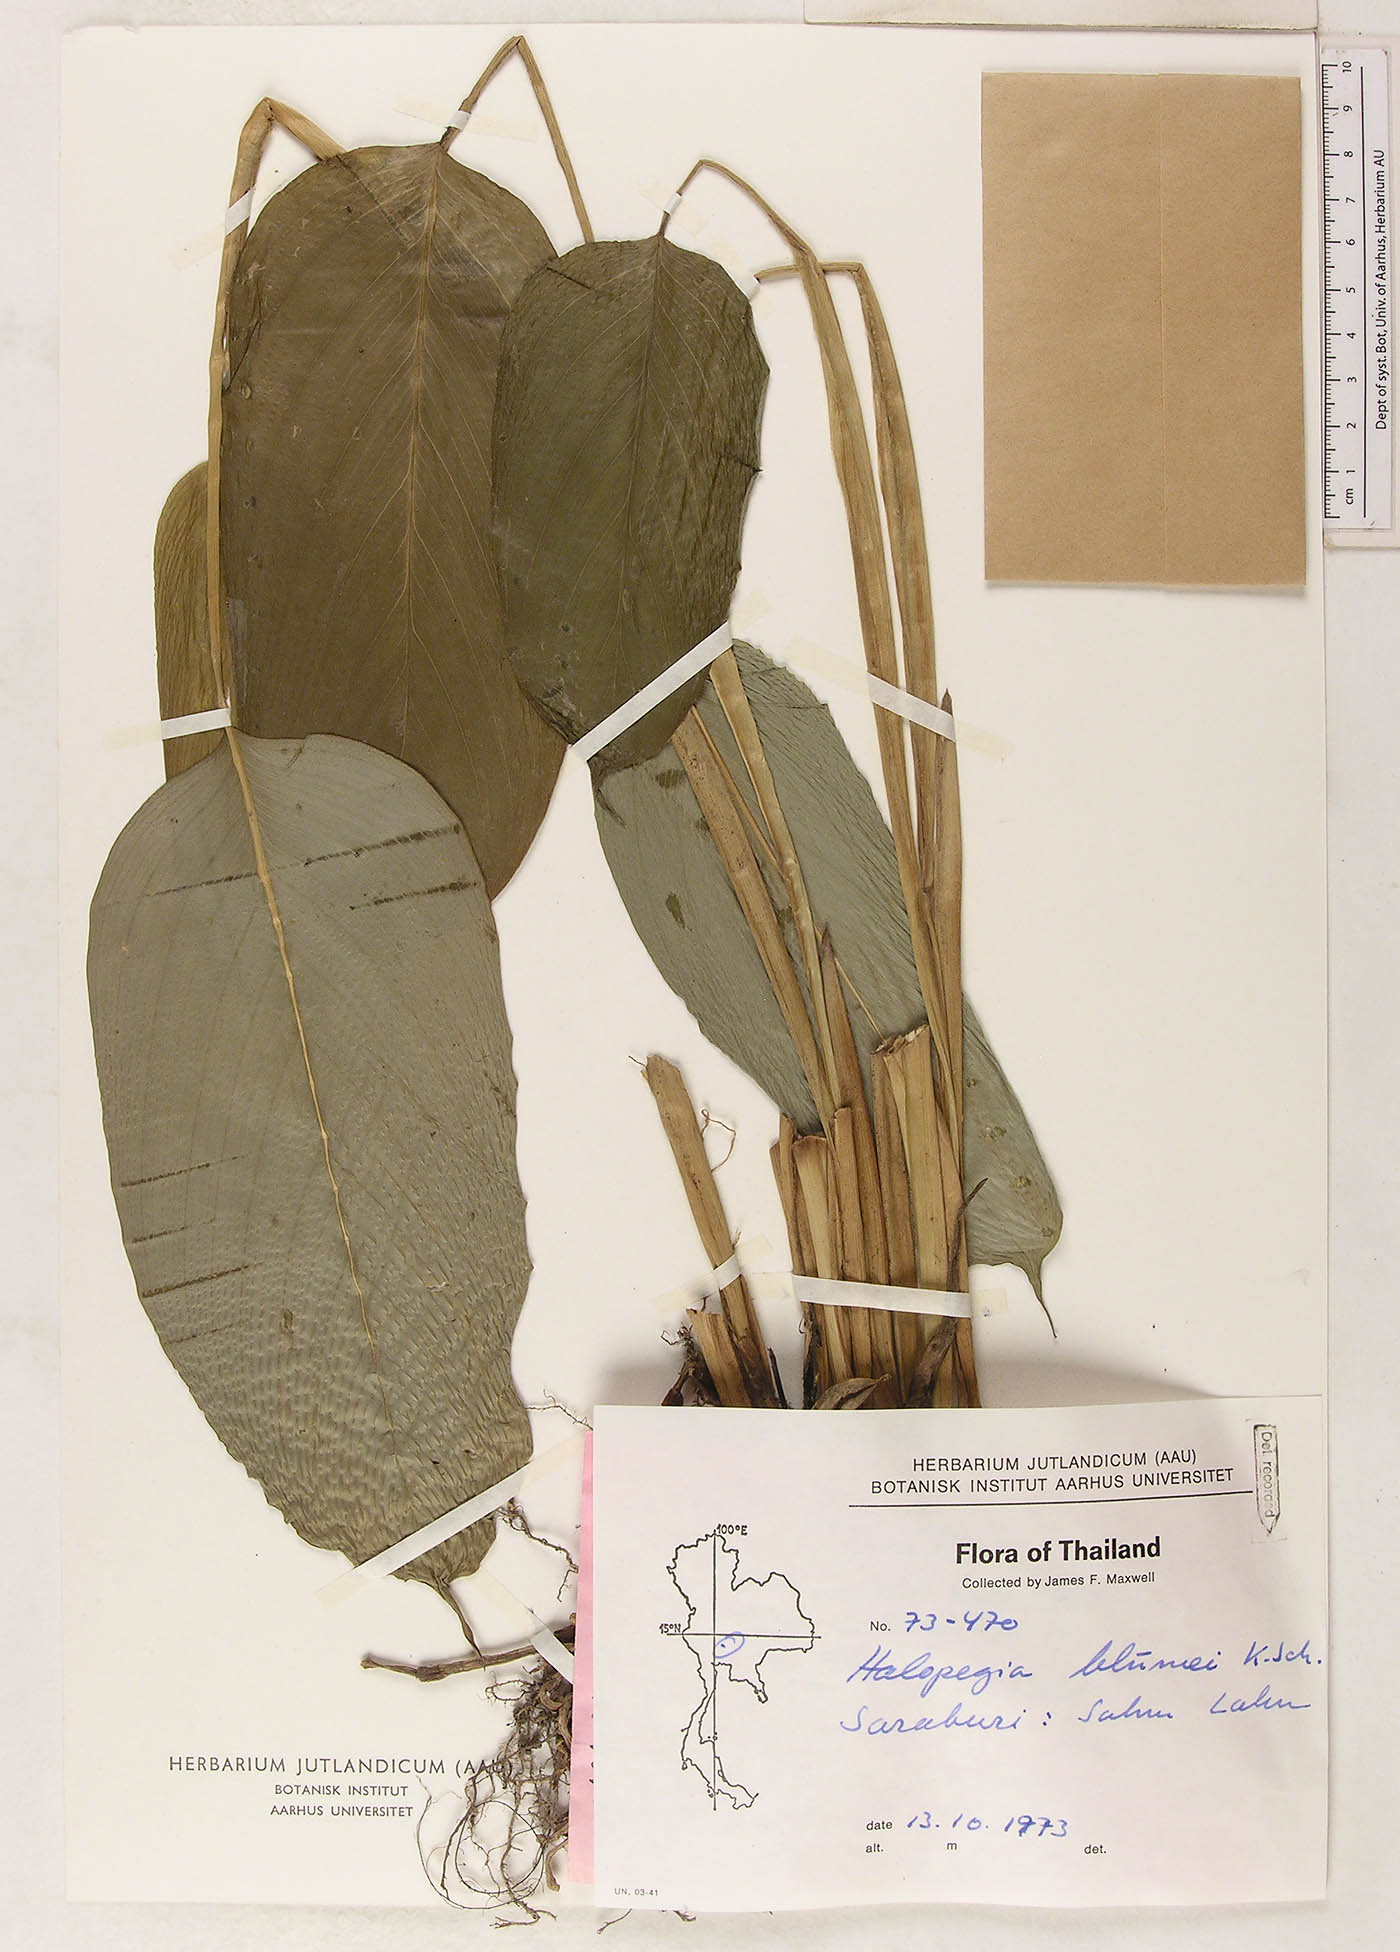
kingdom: Plantae
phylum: Tracheophyta
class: Liliopsida
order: Zingiberales
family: Marantaceae
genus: Halopegia
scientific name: Halopegia blumei
